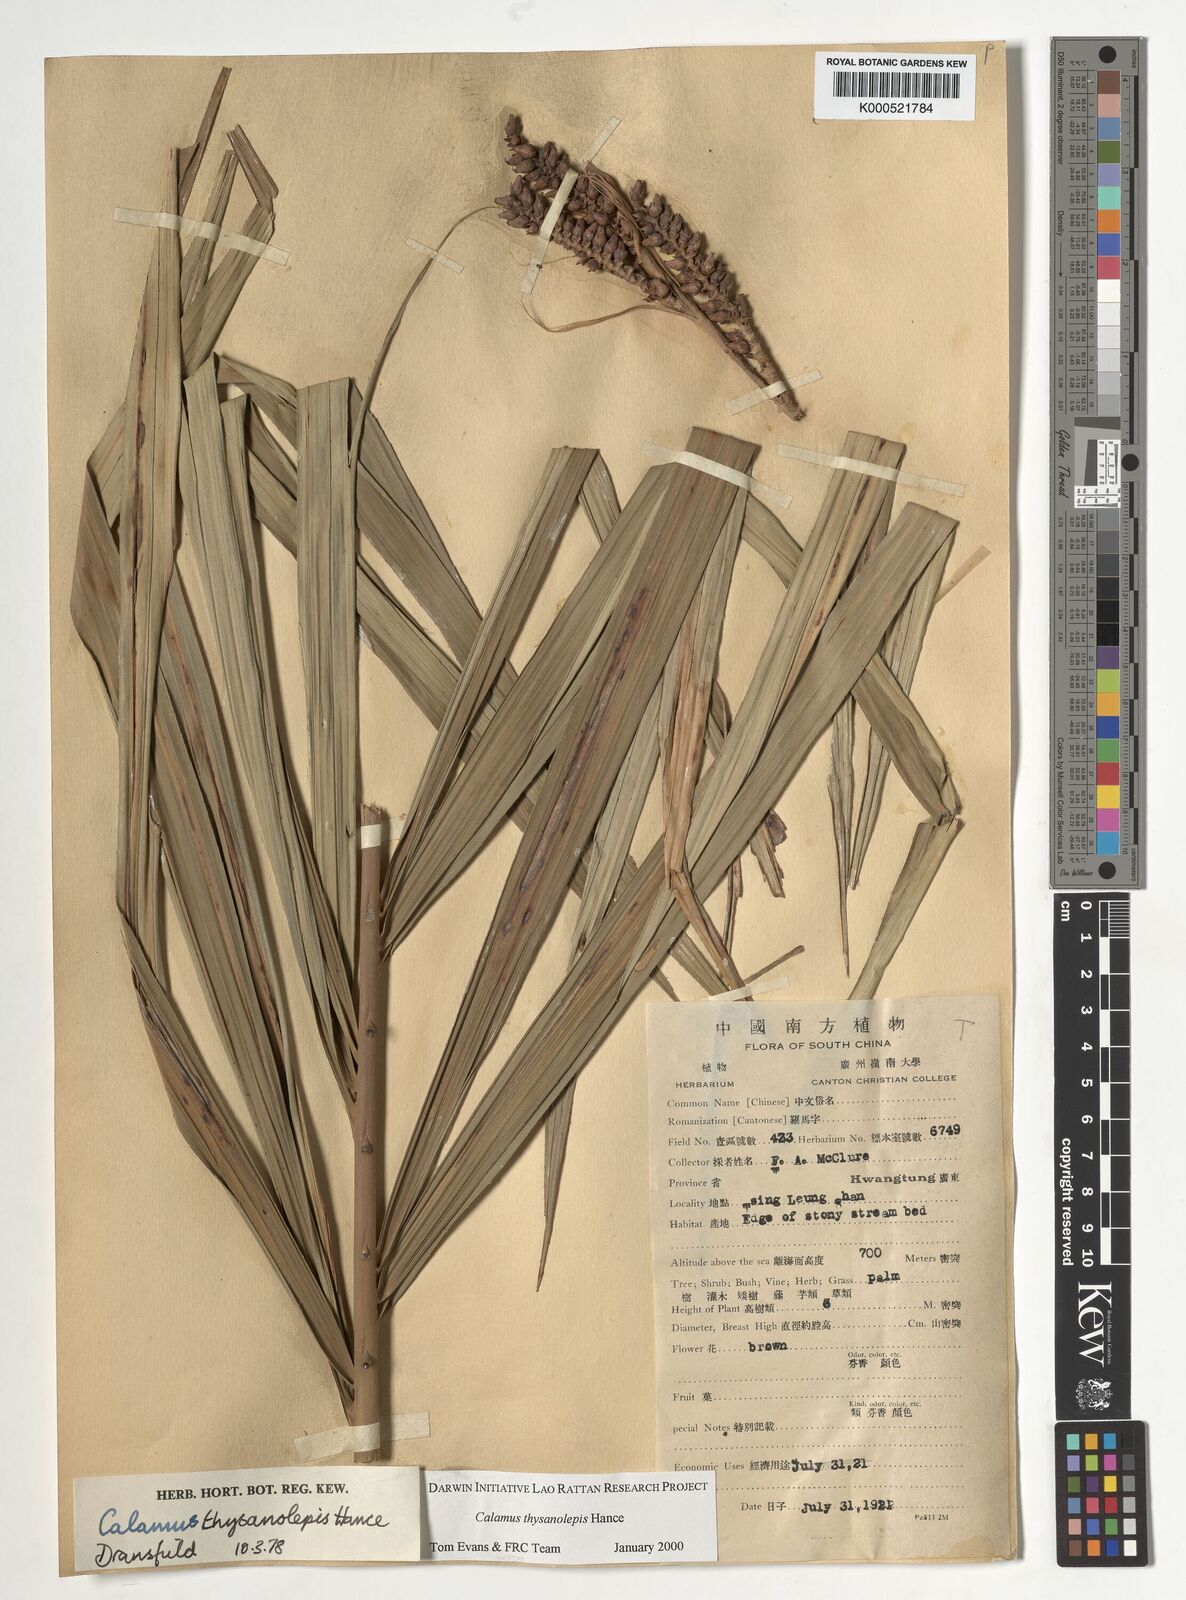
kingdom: Plantae
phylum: Tracheophyta
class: Liliopsida
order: Arecales
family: Arecaceae
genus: Calamus
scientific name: Calamus thysanolepis
